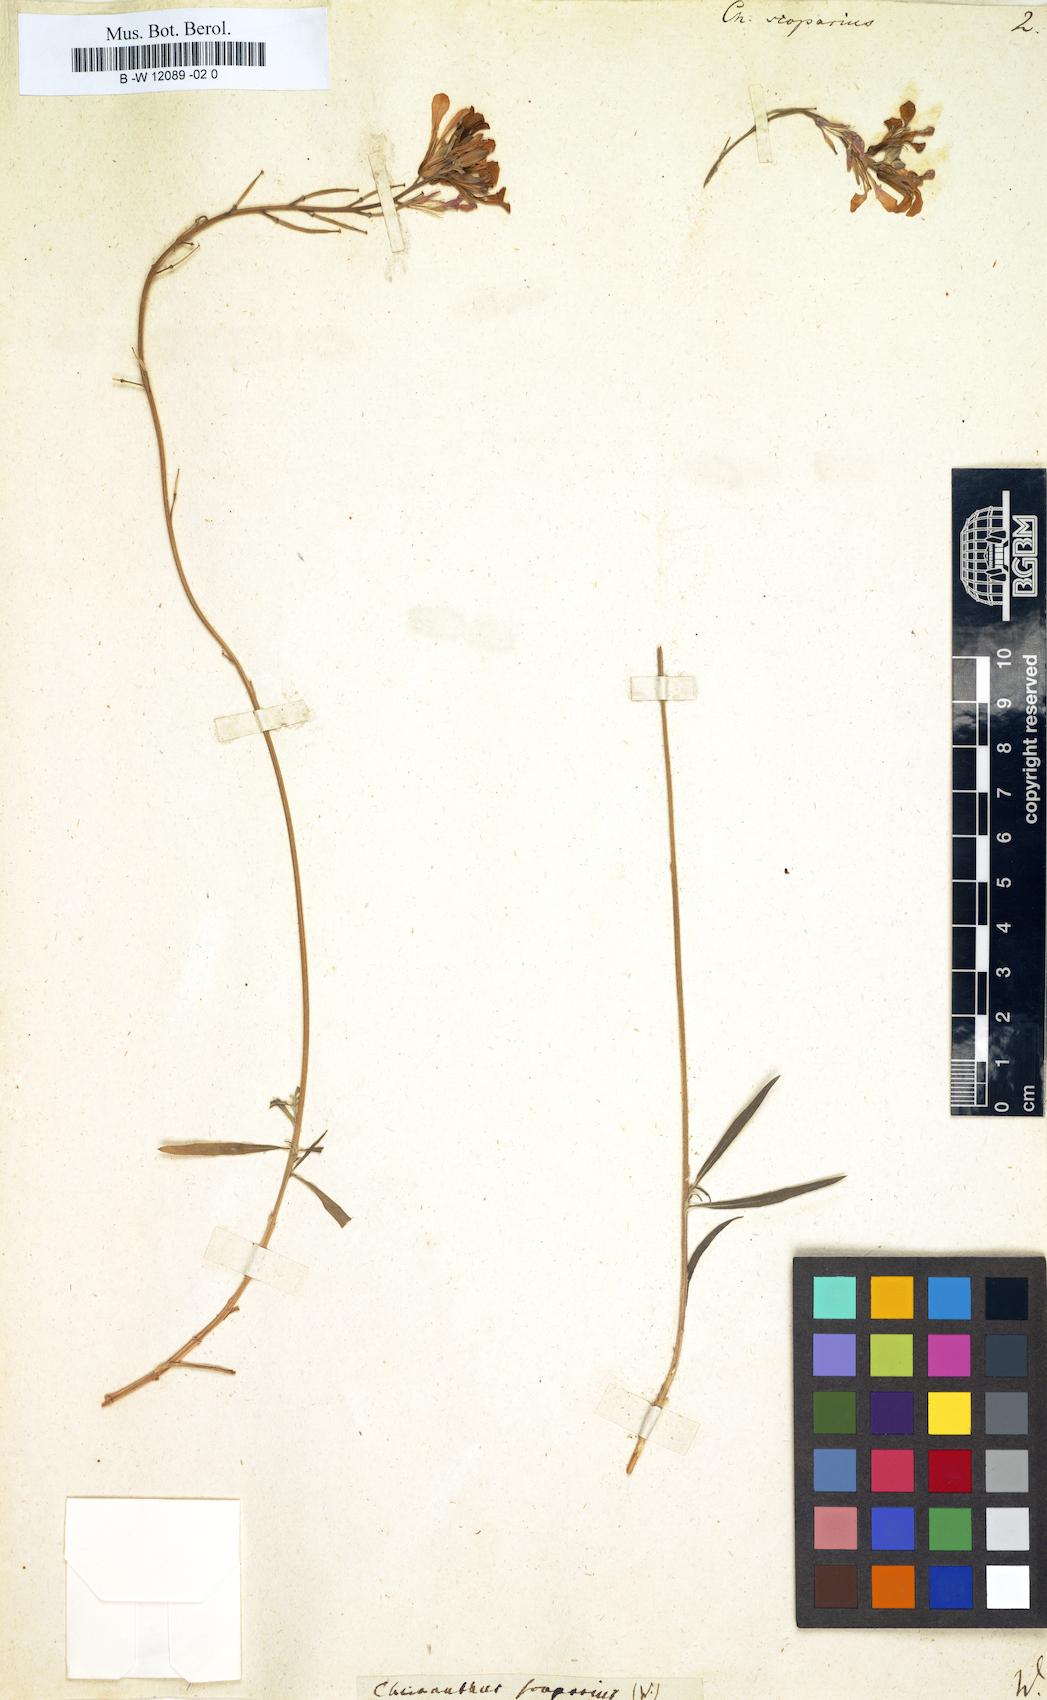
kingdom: Plantae
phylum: Tracheophyta
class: Magnoliopsida
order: Brassicales
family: Brassicaceae
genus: Erysimum
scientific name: Erysimum scoparium
